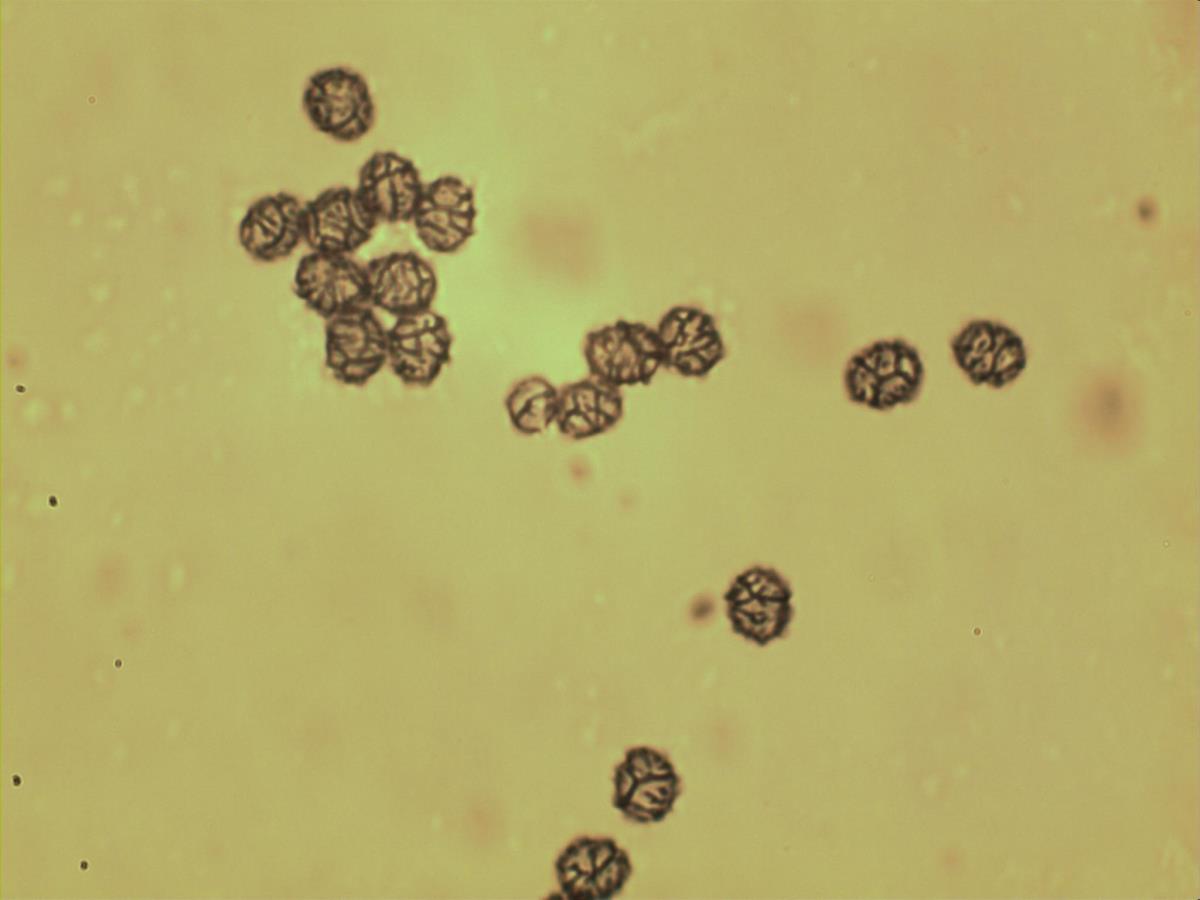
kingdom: Fungi
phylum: Basidiomycota
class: Agaricomycetes
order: Russulales
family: Russulaceae
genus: Lactarius
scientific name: Lactarius tawai
